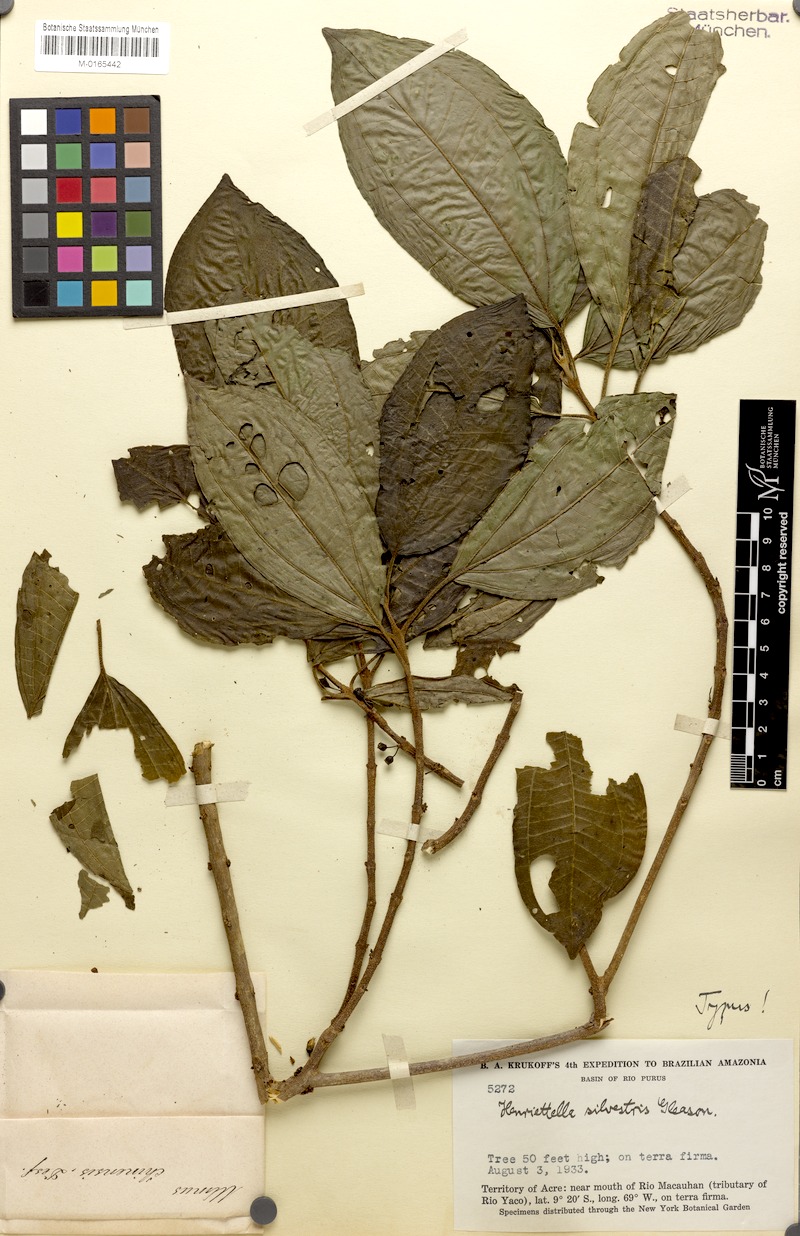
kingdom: Plantae
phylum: Tracheophyta
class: Magnoliopsida
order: Myrtales
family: Melastomataceae
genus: Henriettea
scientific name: Henriettea sylvestris
